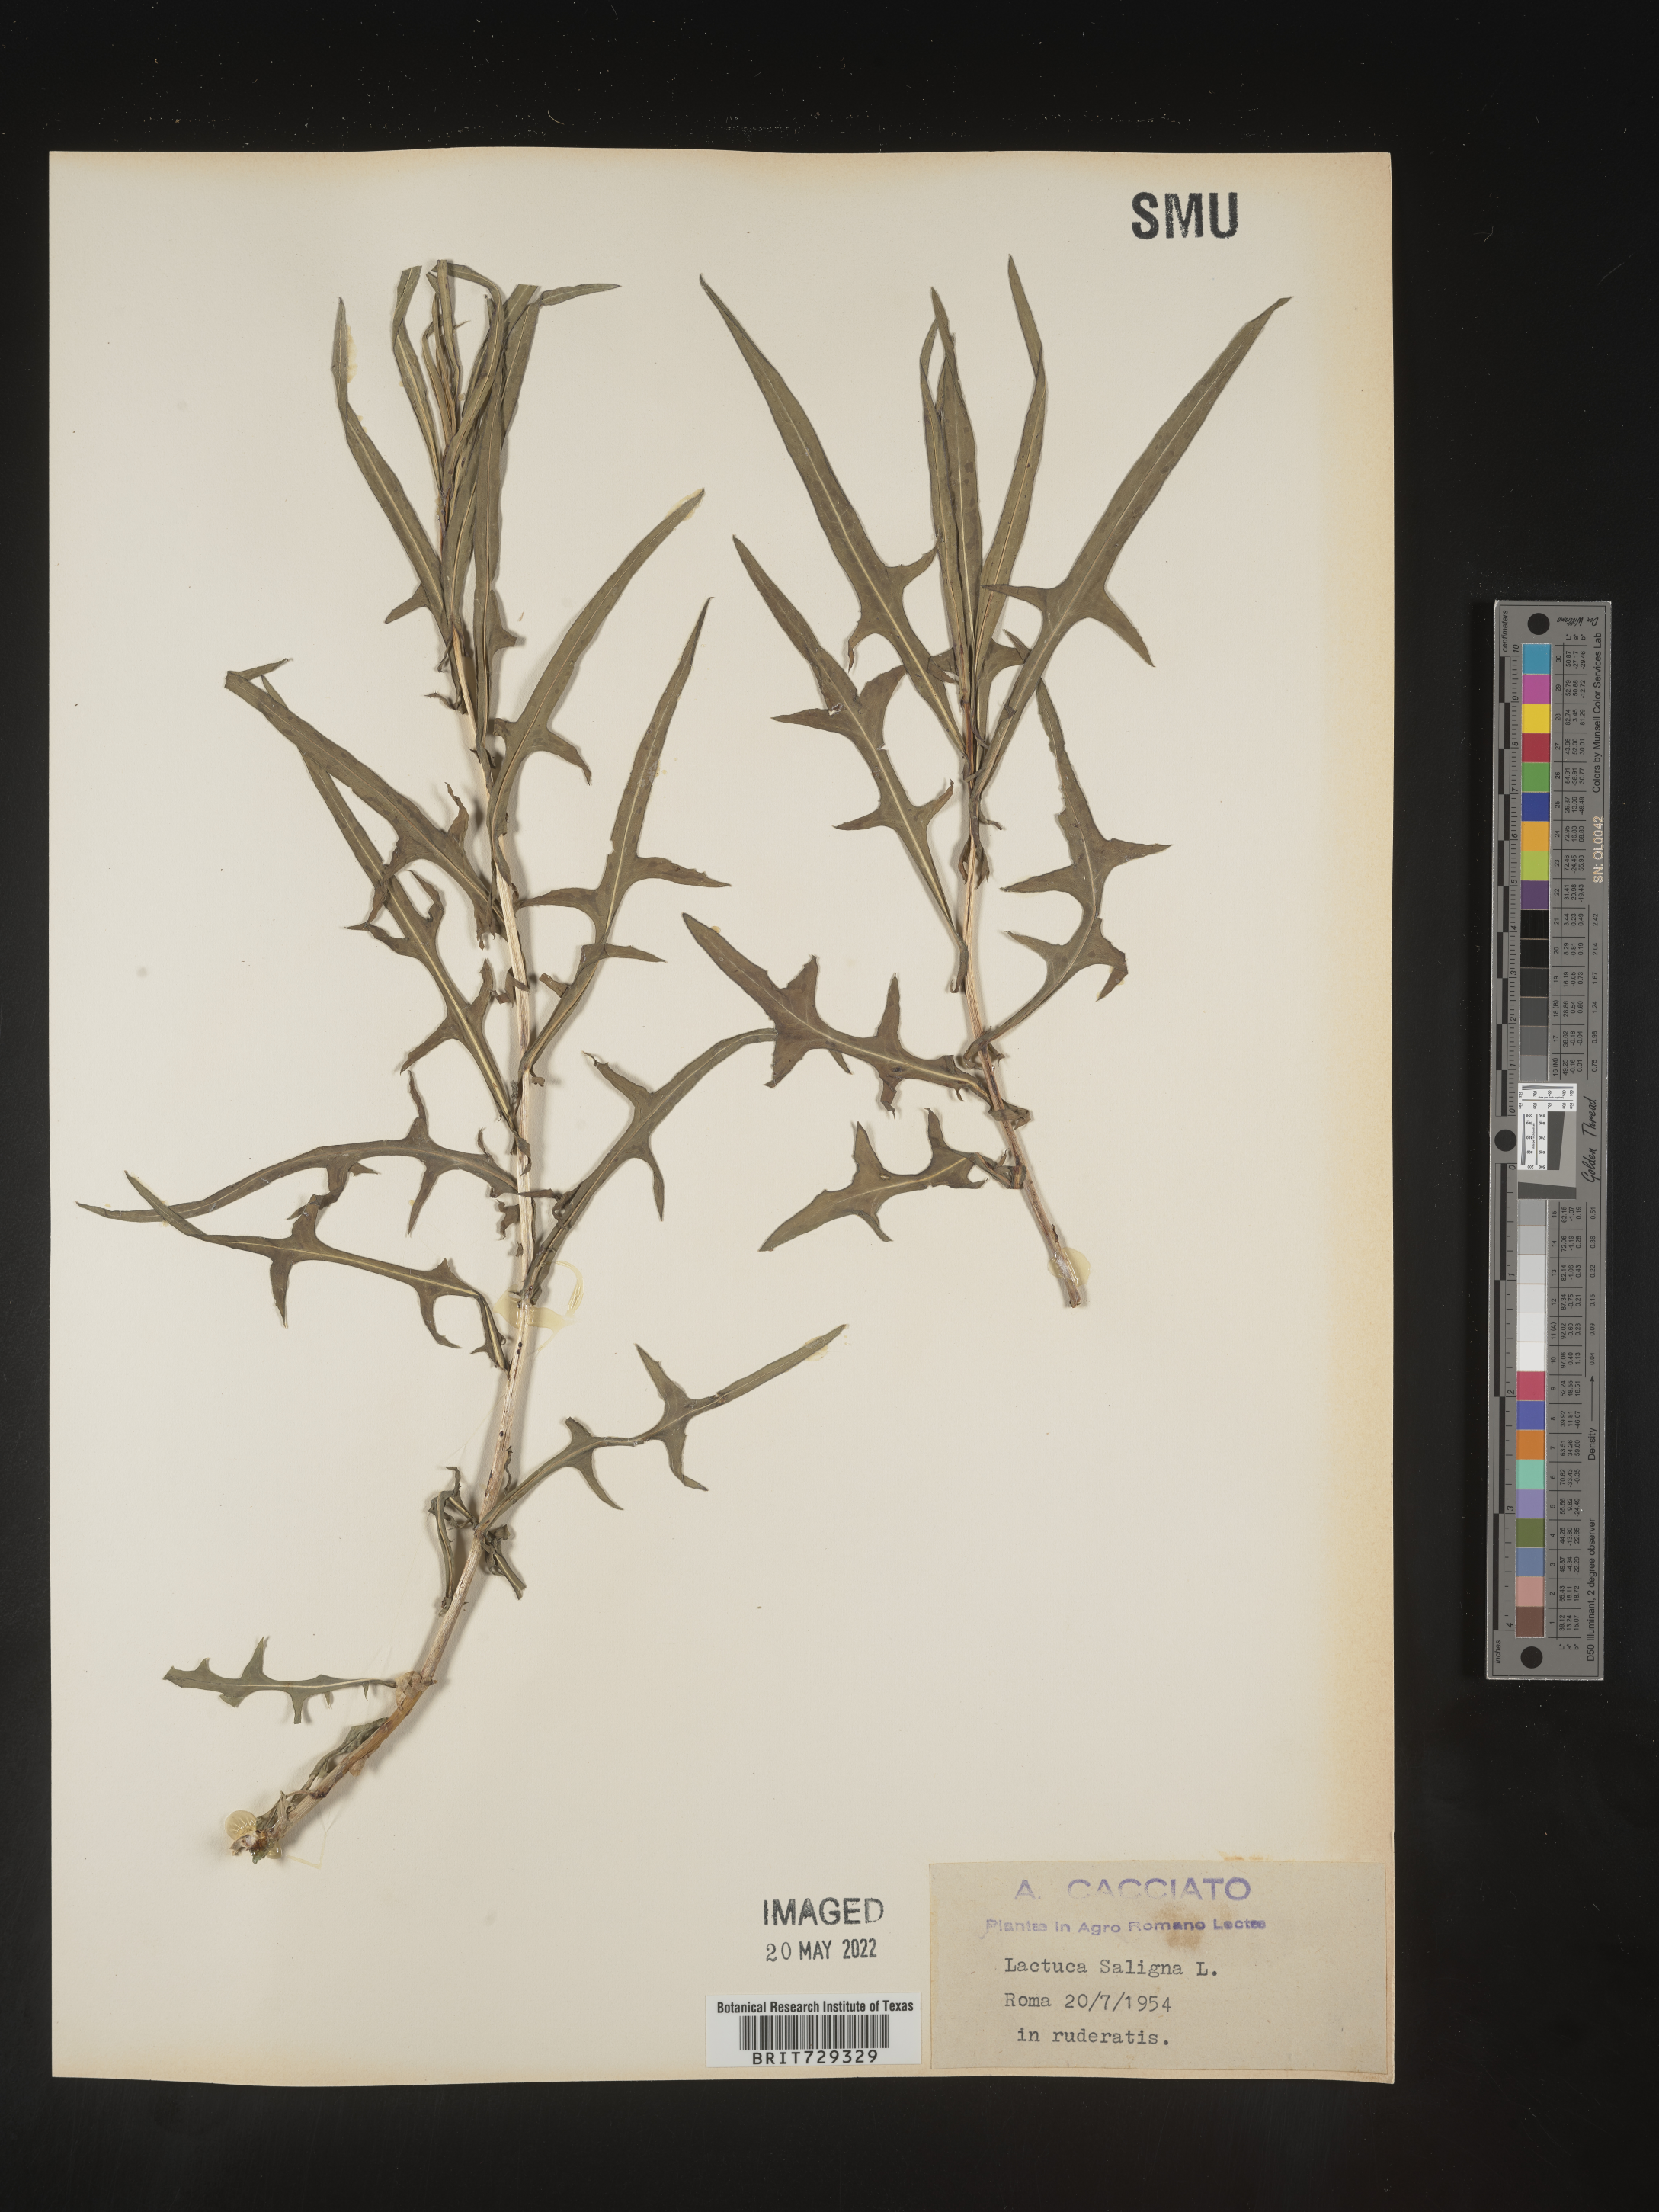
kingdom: Plantae
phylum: Tracheophyta
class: Magnoliopsida
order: Asterales
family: Asteraceae
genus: Lactuca
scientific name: Lactuca
